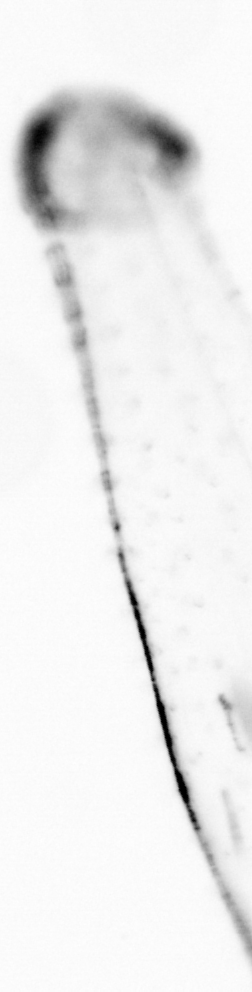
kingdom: Animalia
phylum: Chaetognatha
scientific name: Chaetognatha
